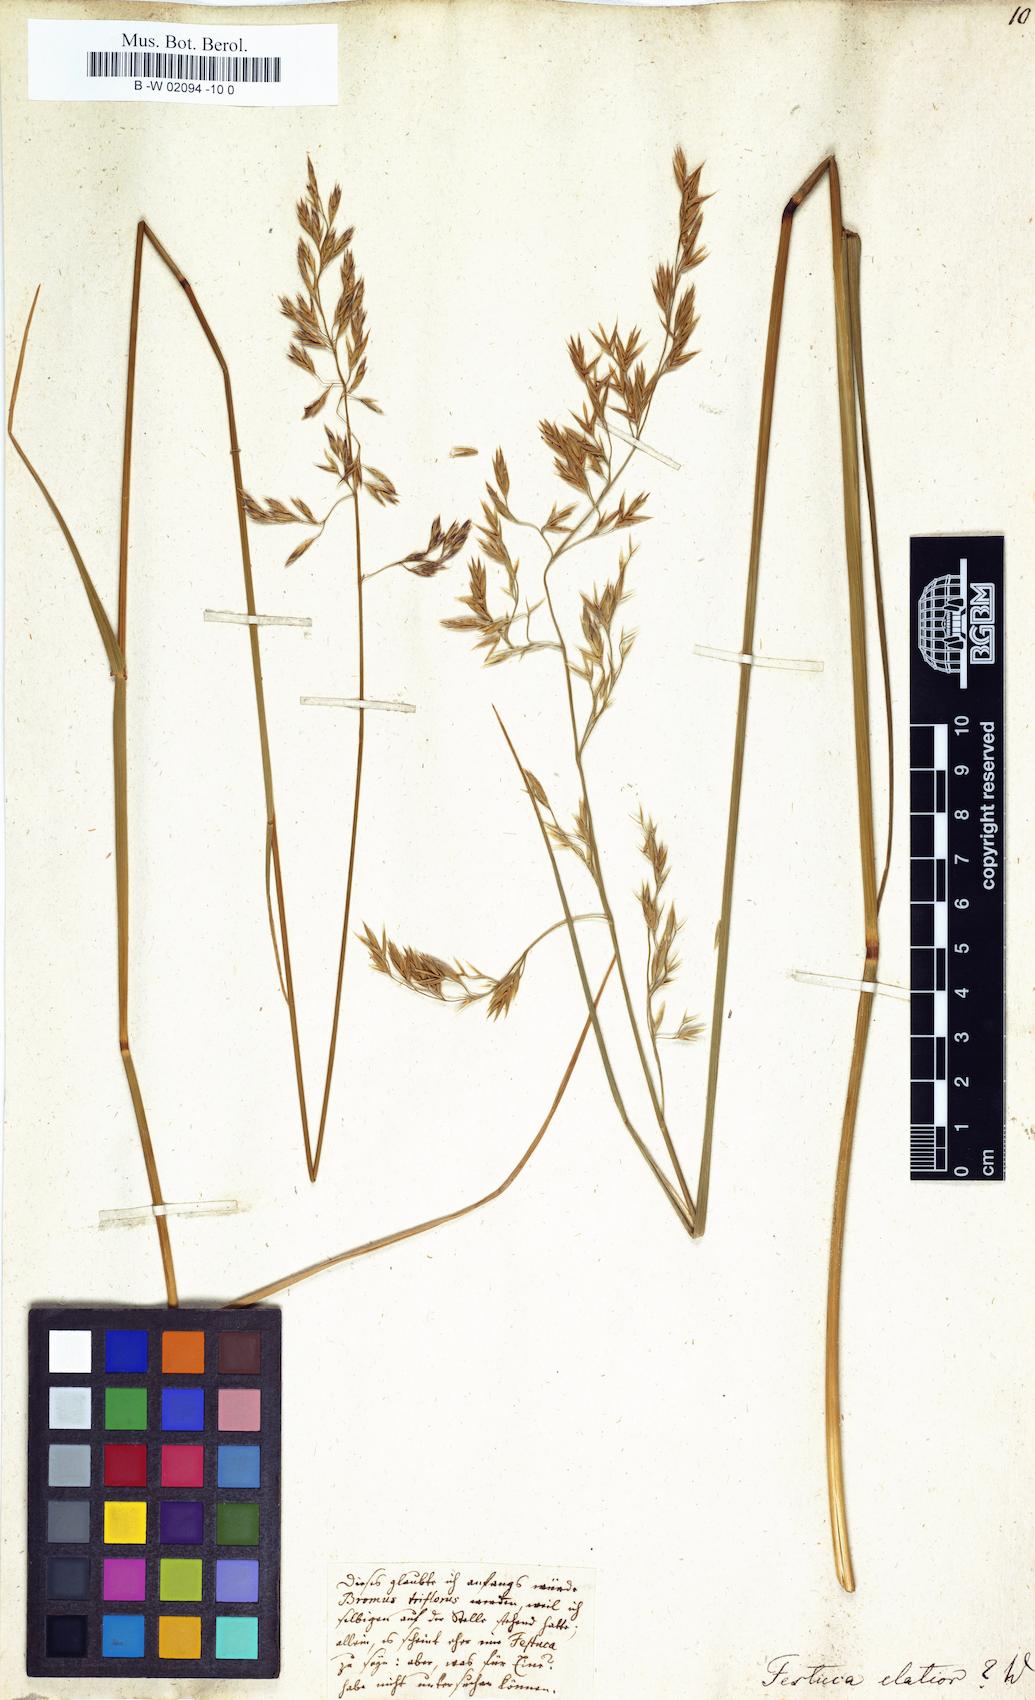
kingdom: Plantae
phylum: Tracheophyta
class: Liliopsida
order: Poales
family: Poaceae
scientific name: Poaceae
